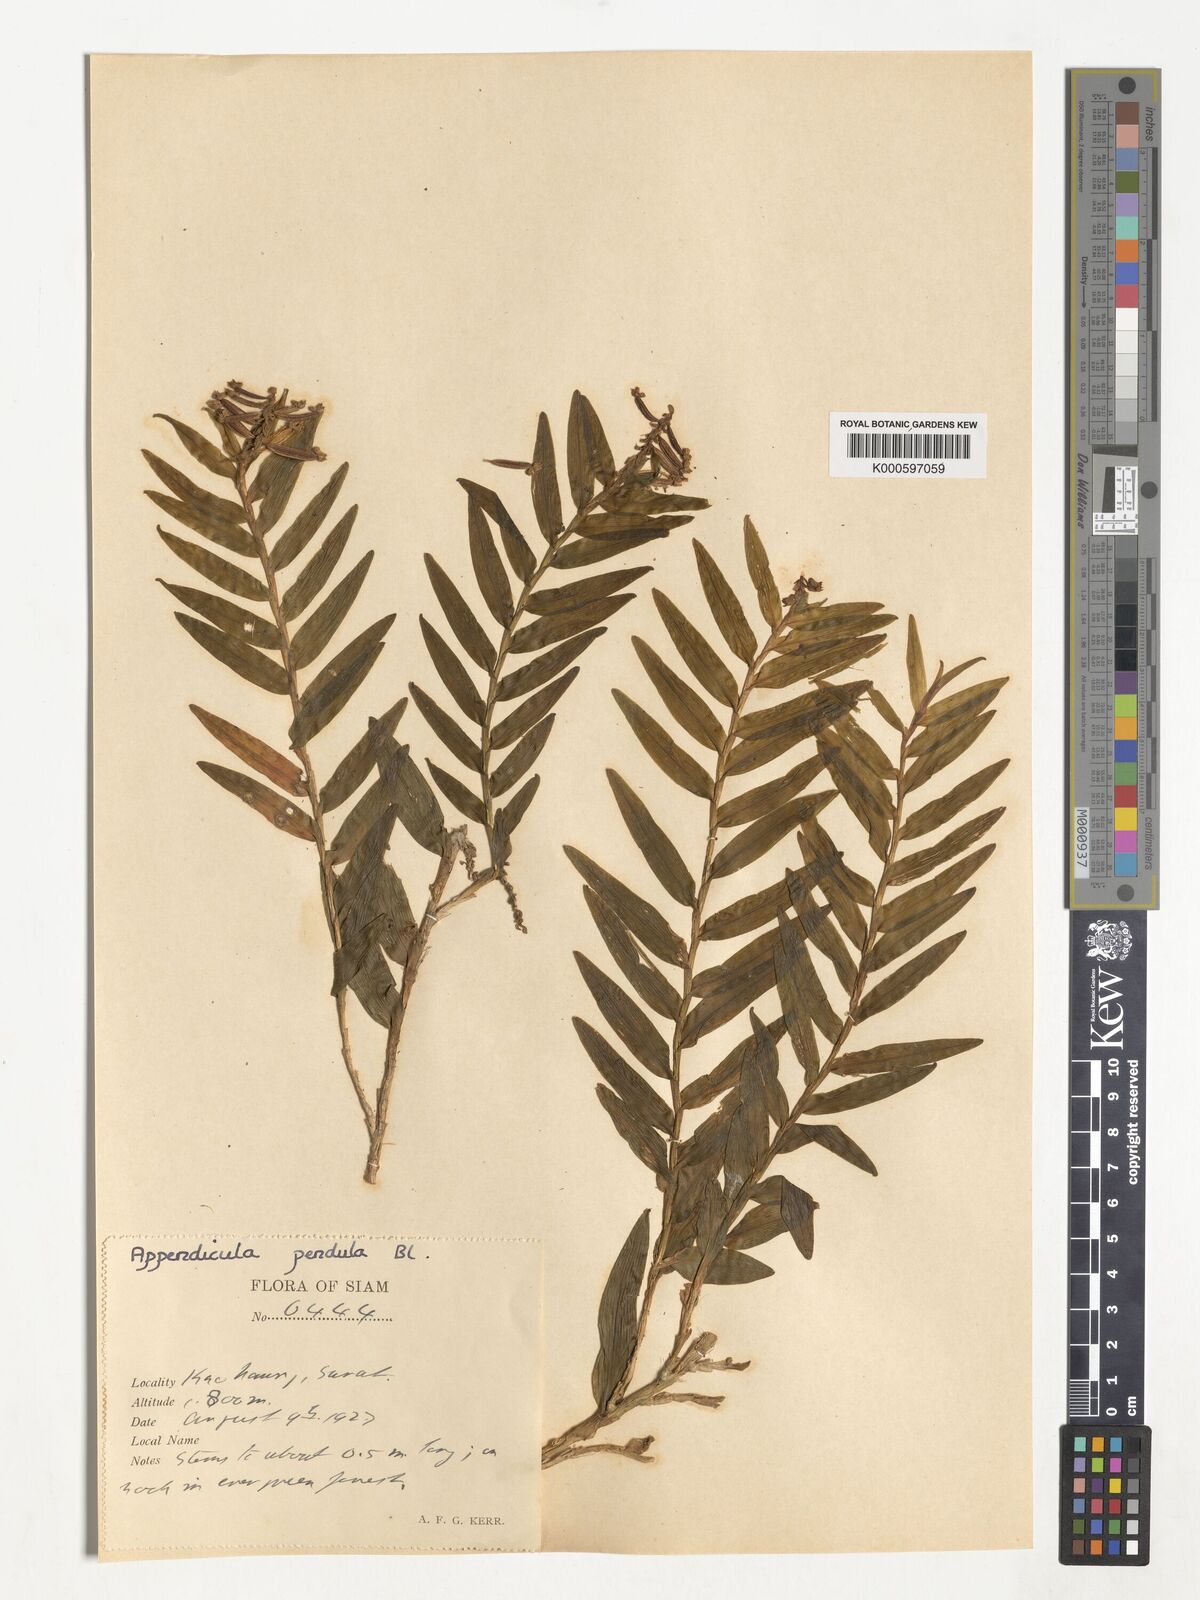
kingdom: Plantae
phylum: Tracheophyta
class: Liliopsida
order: Asparagales
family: Orchidaceae
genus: Appendicula
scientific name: Appendicula pendula
